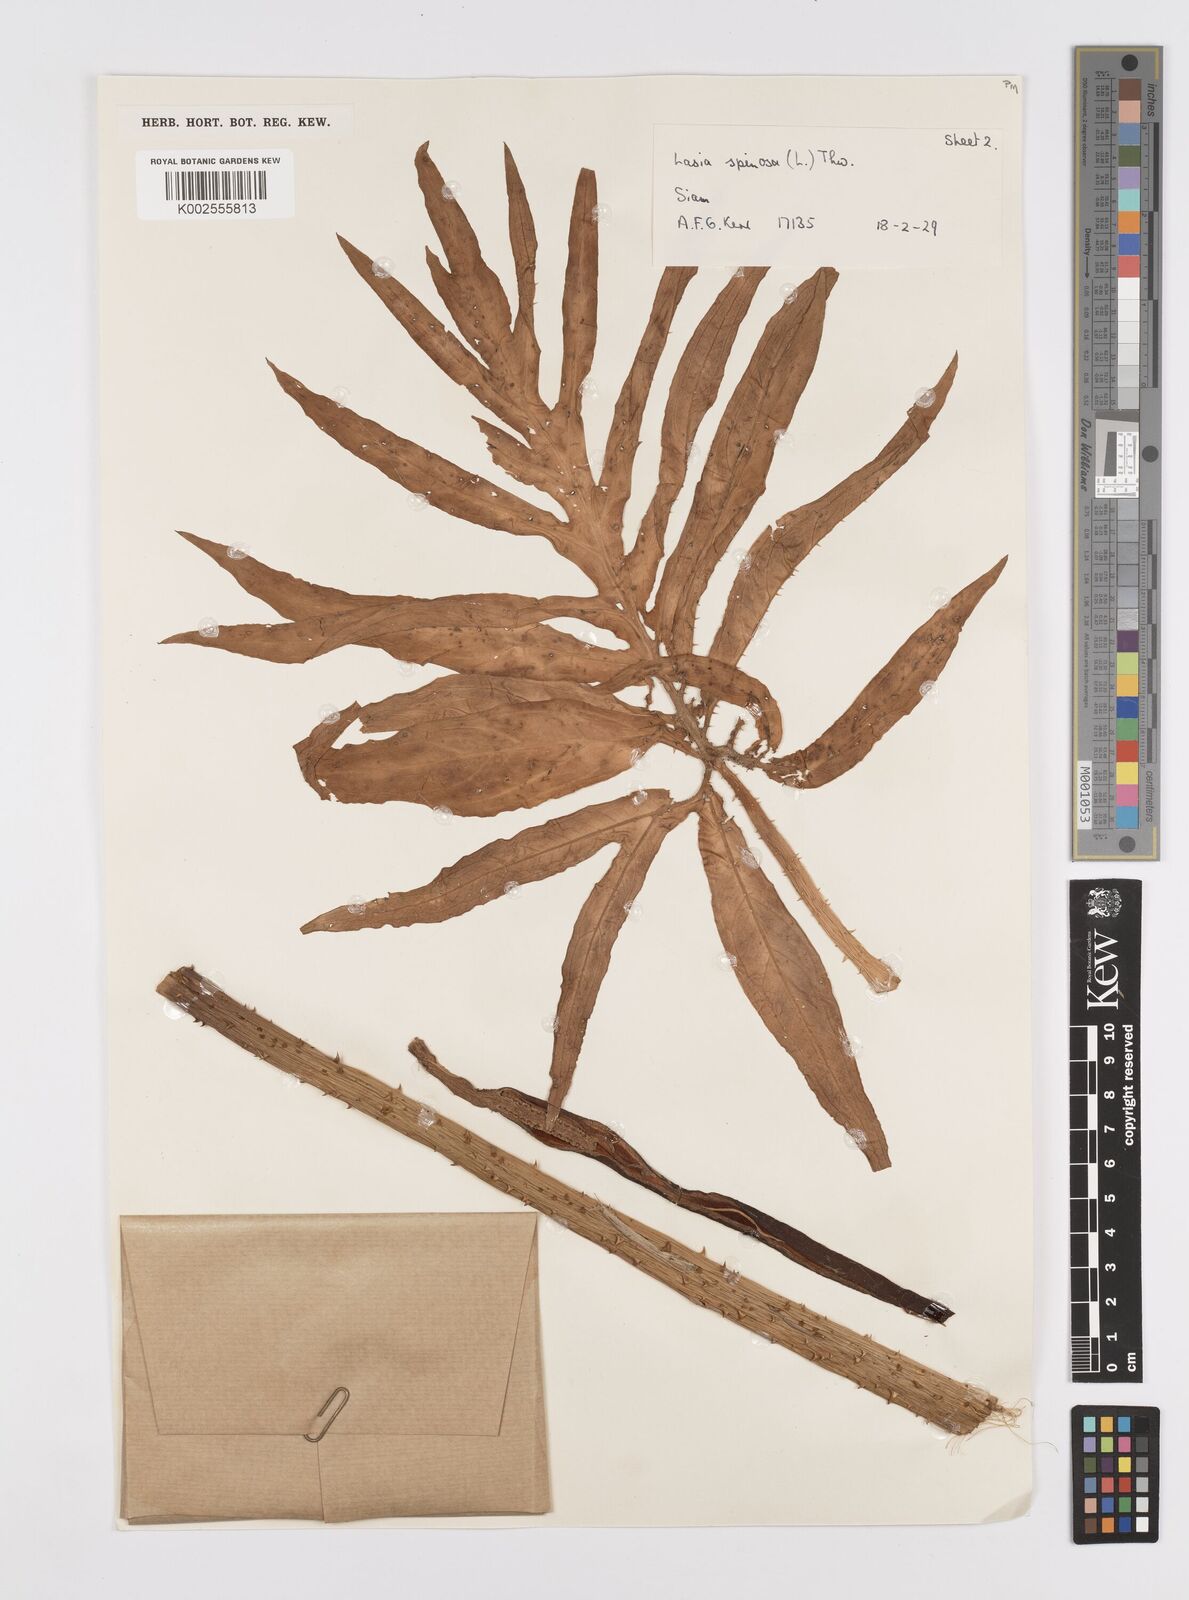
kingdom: Plantae
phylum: Tracheophyta
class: Liliopsida
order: Alismatales
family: Araceae
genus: Lasia
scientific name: Lasia spinosa
